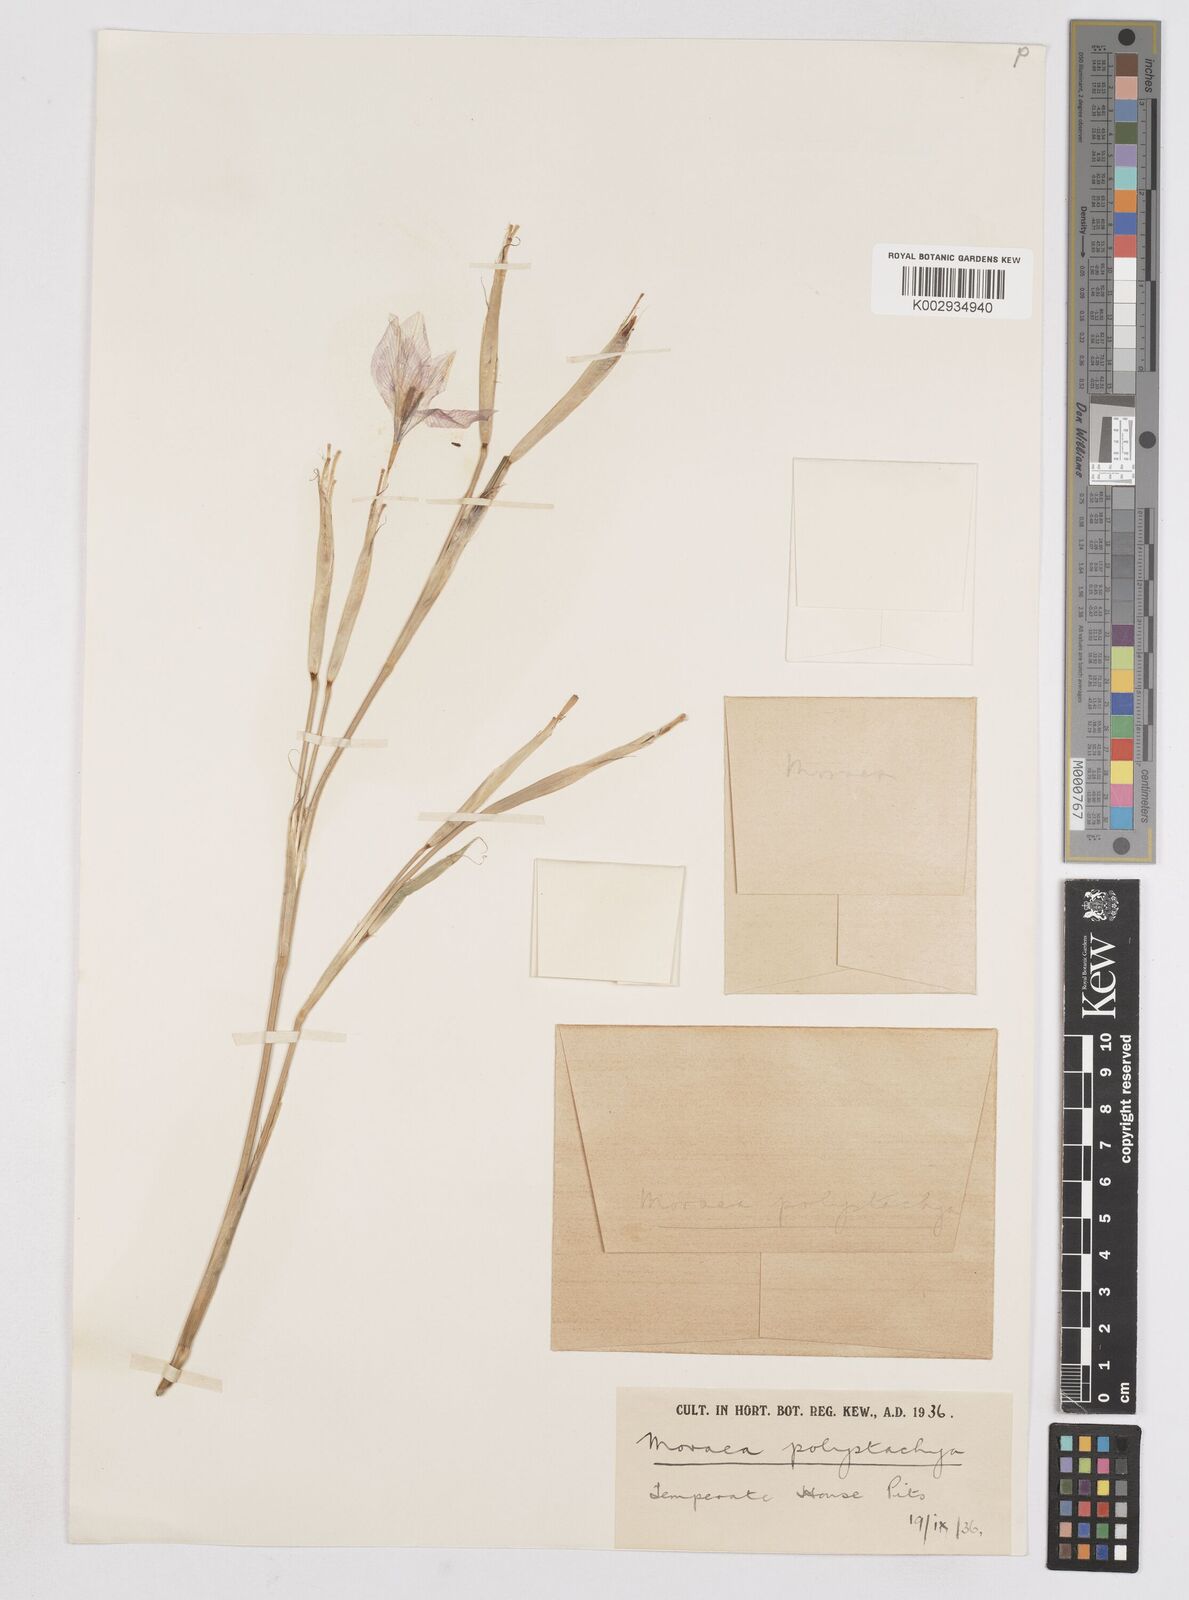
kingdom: Plantae
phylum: Tracheophyta
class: Liliopsida
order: Asparagales
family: Iridaceae
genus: Moraea
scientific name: Moraea polystachya
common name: Blue-tulip
